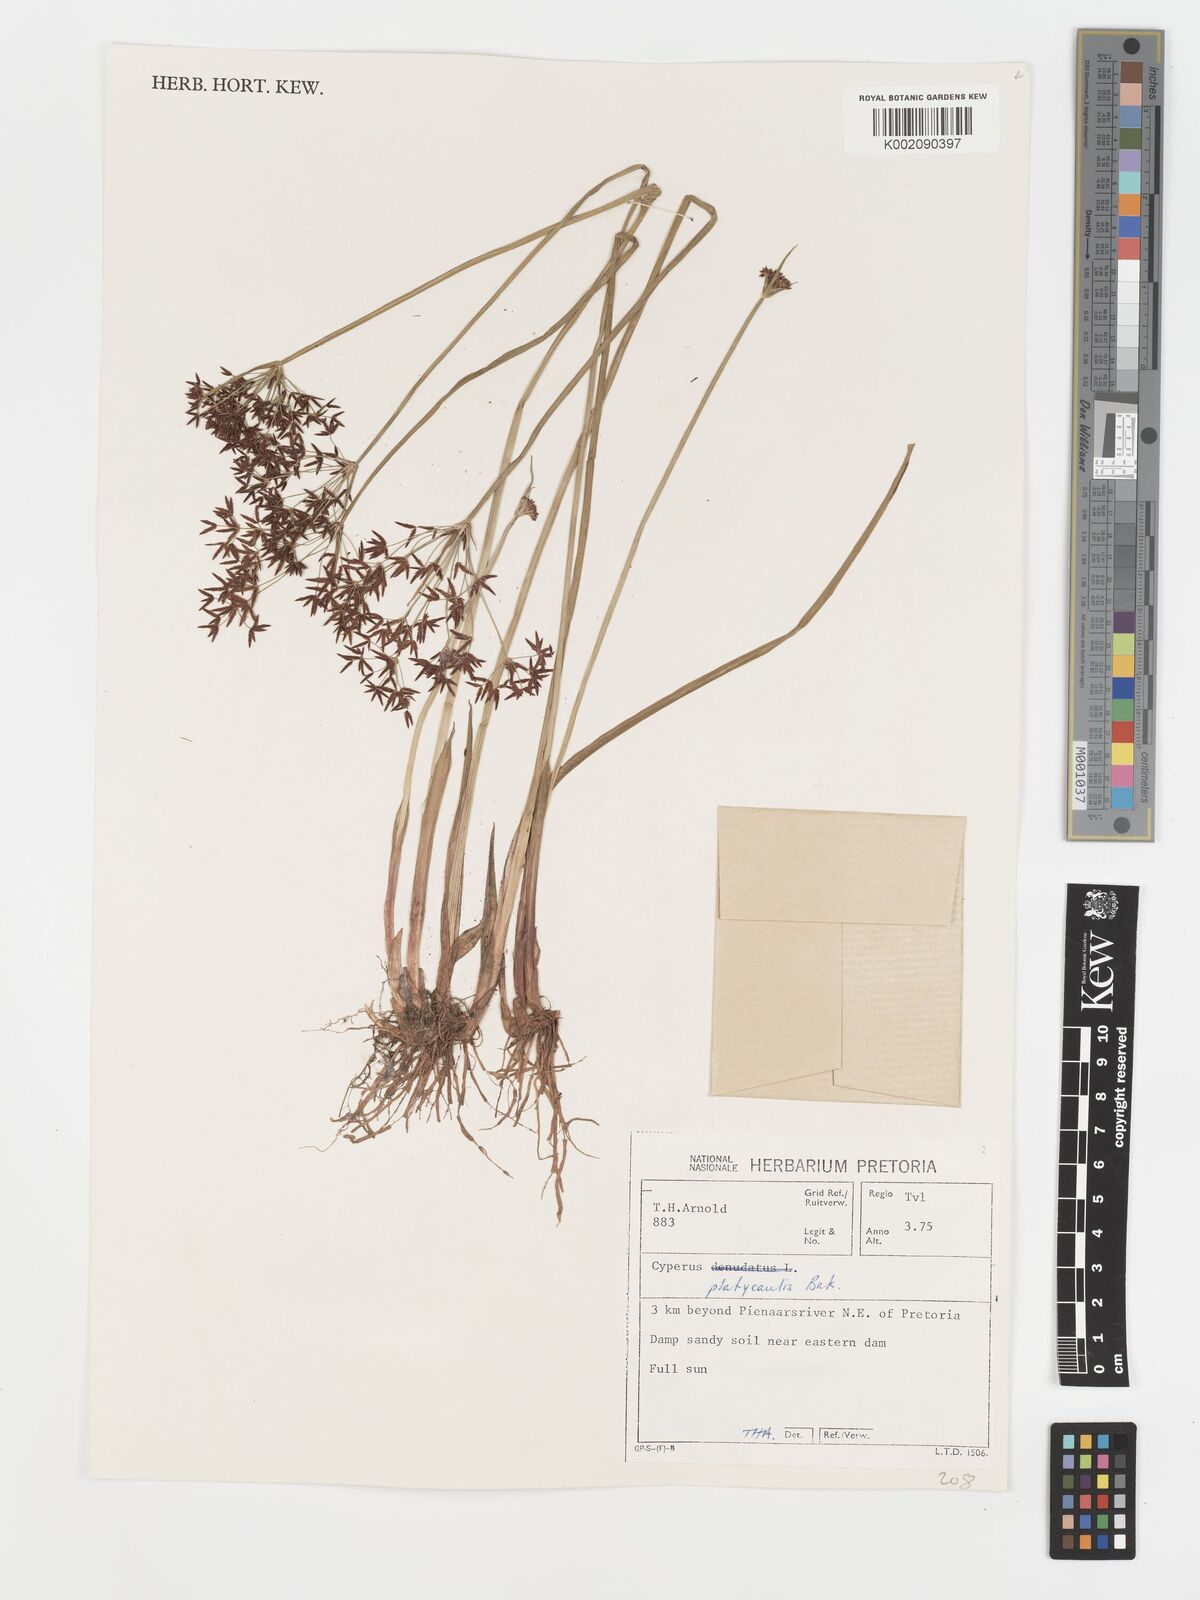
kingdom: Plantae
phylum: Tracheophyta
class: Liliopsida
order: Poales
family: Cyperaceae
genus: Cyperus
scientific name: Cyperus platycaulis
